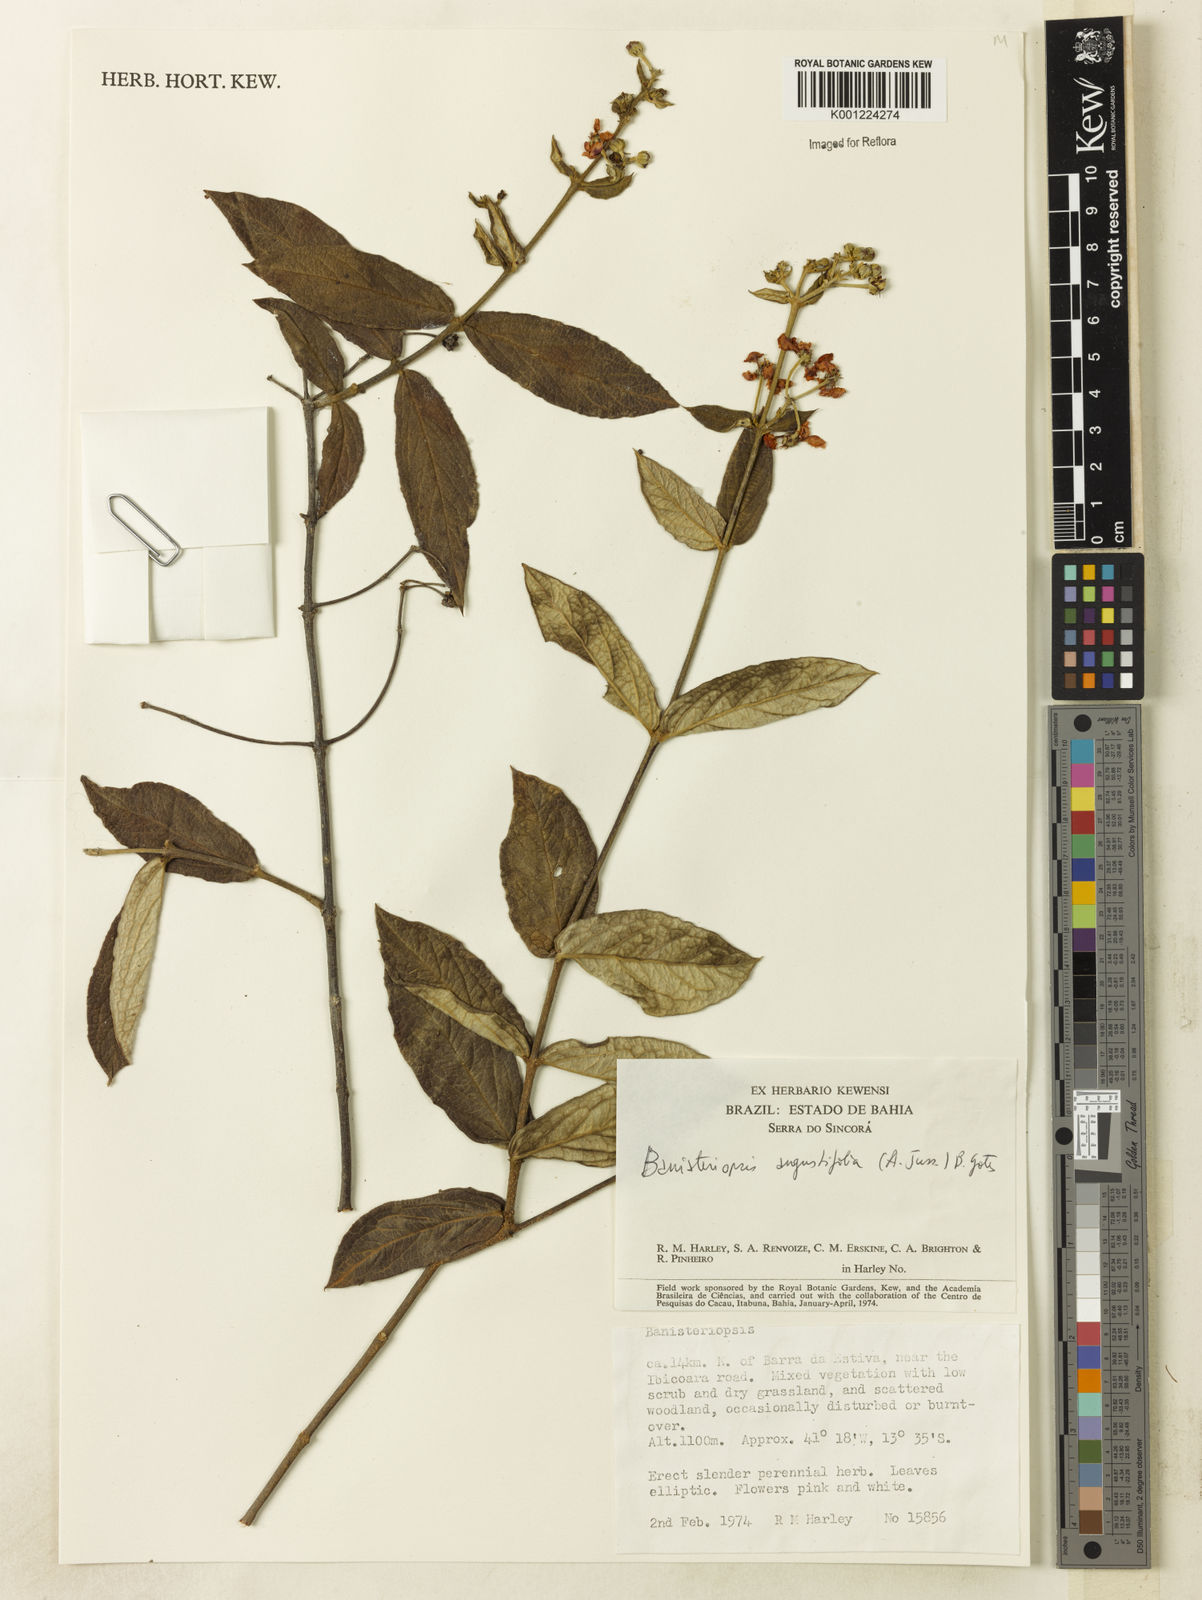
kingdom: Plantae
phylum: Tracheophyta
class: Magnoliopsida
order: Malpighiales
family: Malpighiaceae
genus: Banisteriopsis
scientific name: Banisteriopsis angustifolia
